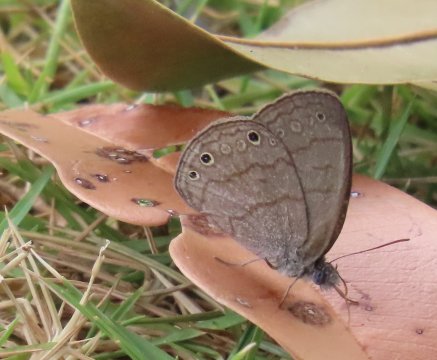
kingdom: Animalia
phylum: Arthropoda
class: Insecta
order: Lepidoptera
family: Nymphalidae
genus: Hermeuptychia
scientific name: Hermeuptychia hermes
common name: Carolina Satyr
